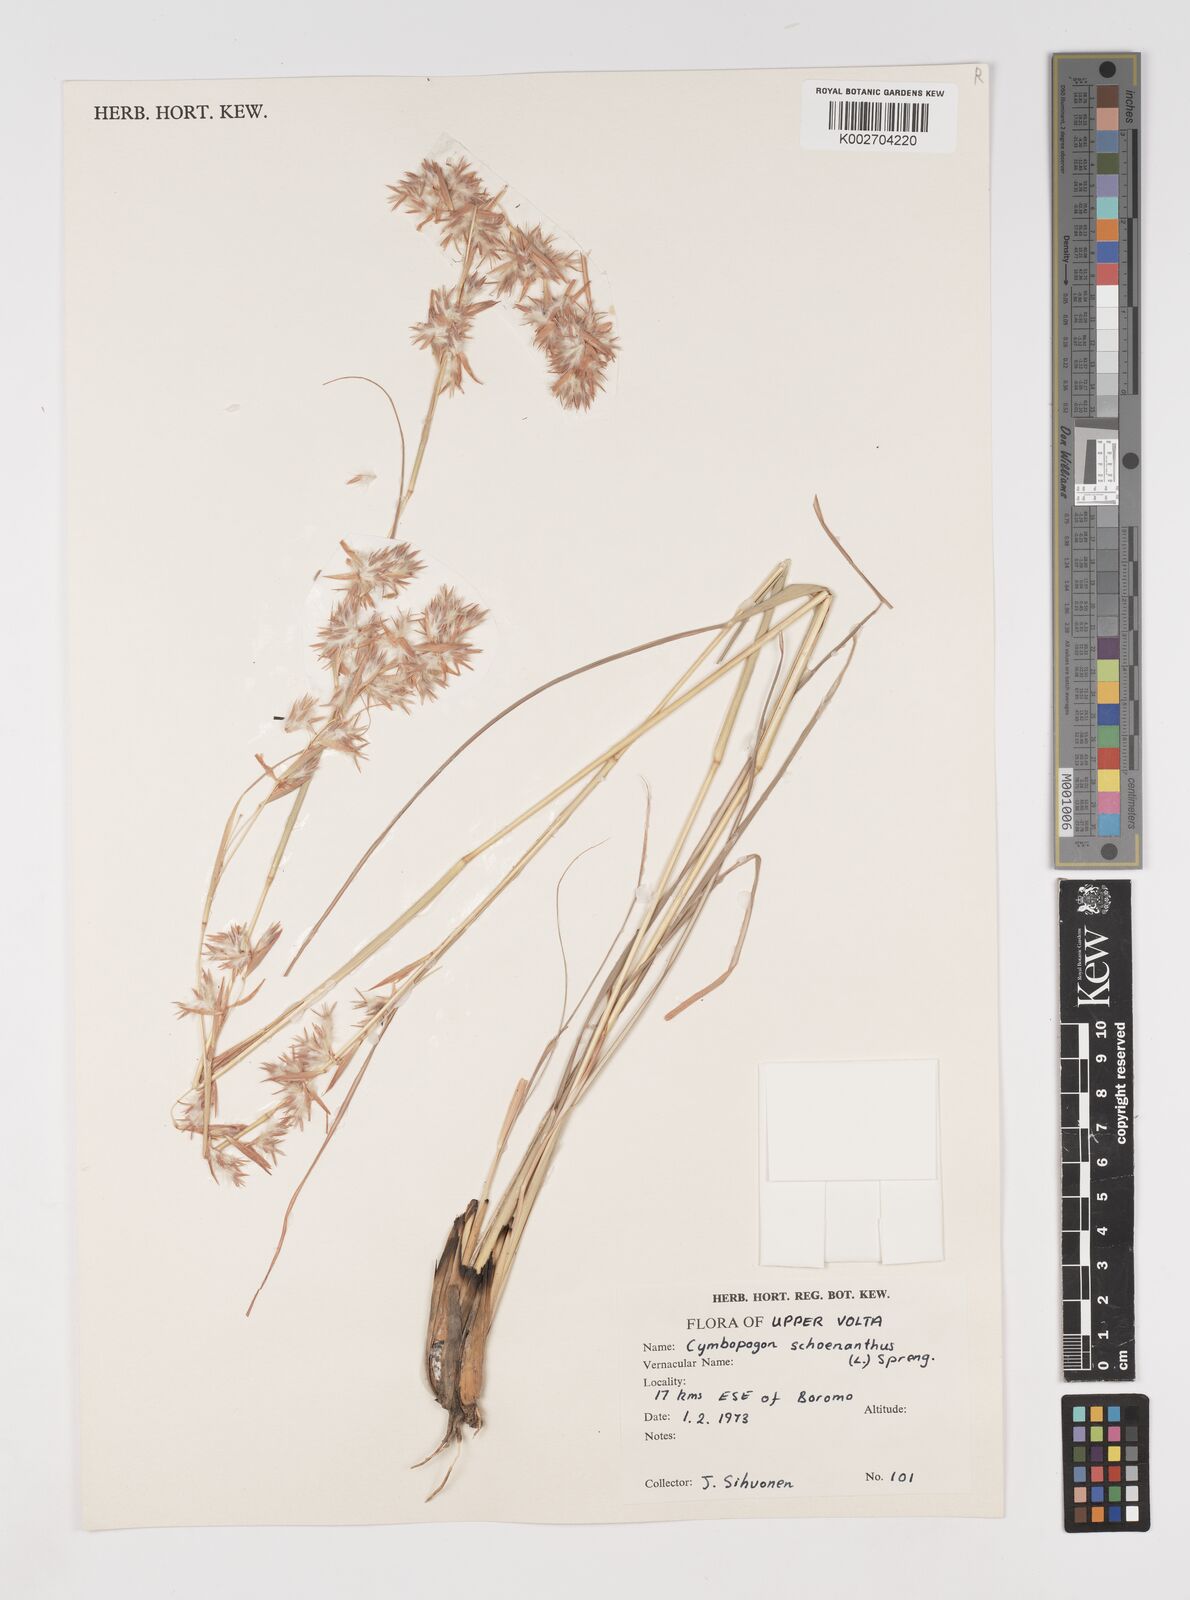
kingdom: Plantae
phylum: Tracheophyta
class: Liliopsida
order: Poales
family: Poaceae
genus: Cymbopogon
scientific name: Cymbopogon schoenanthus
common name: Geranium grass
